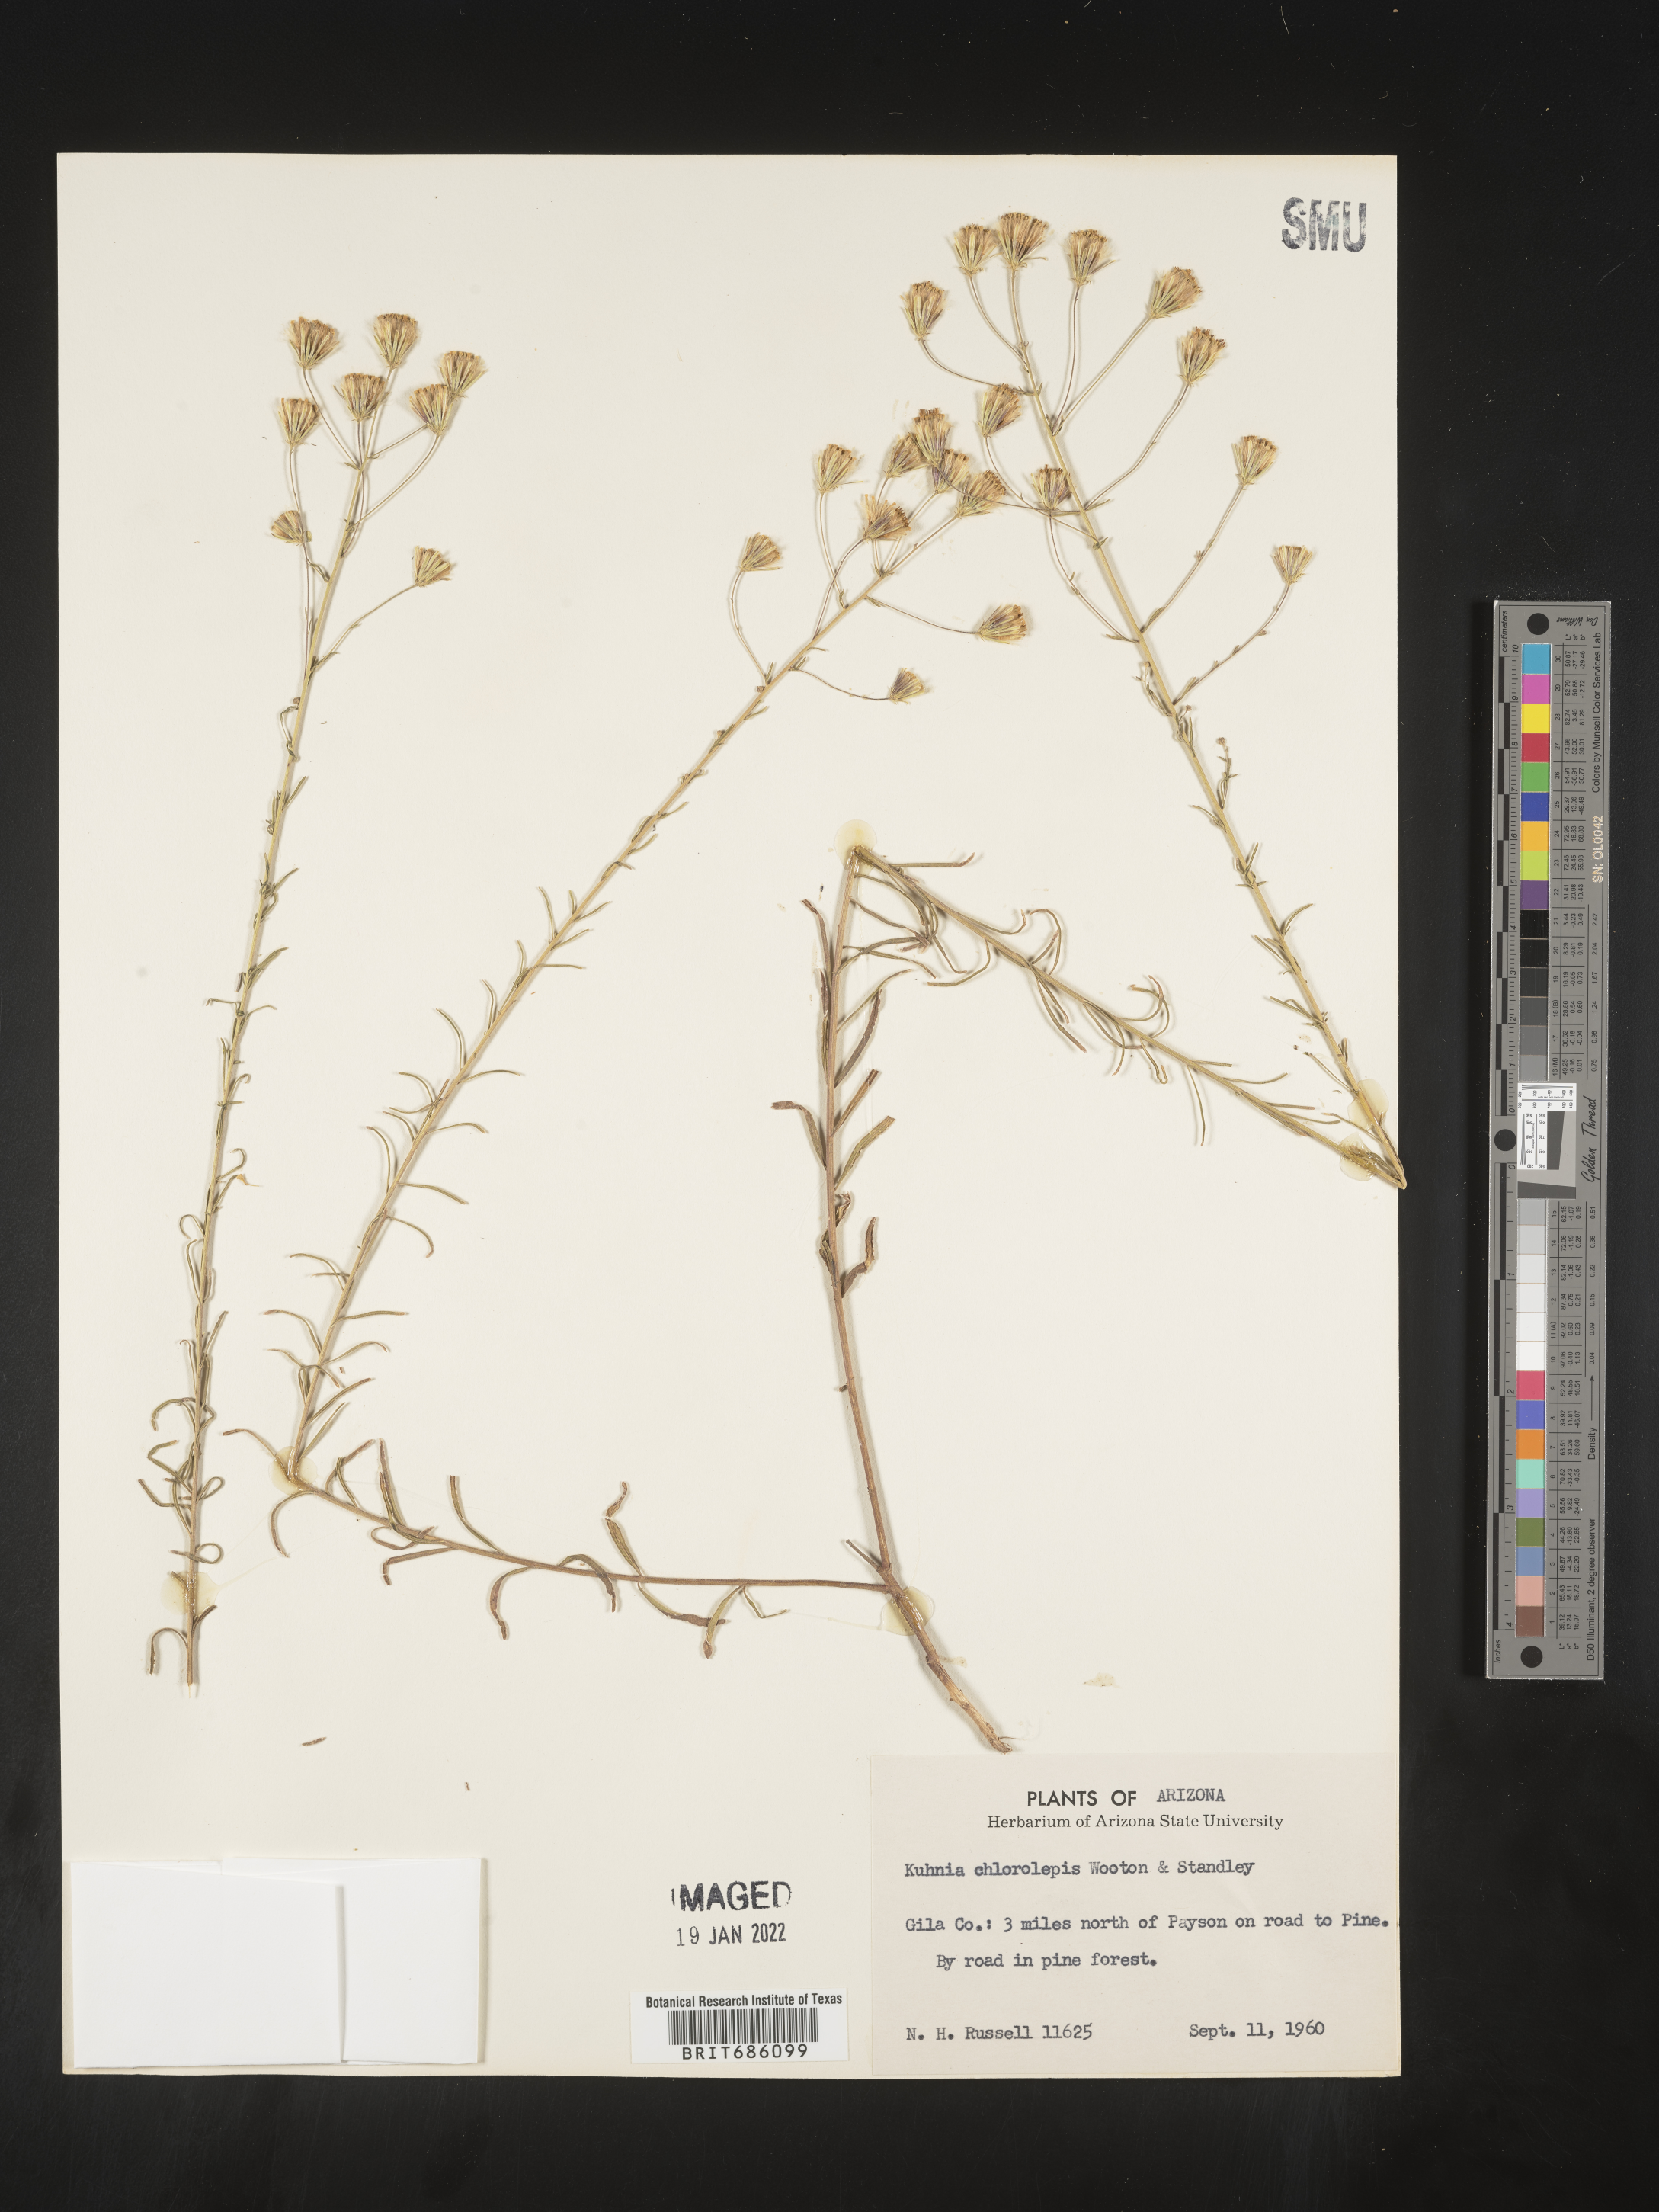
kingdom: Plantae
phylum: Tracheophyta
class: Magnoliopsida
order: Asterales
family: Asteraceae
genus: Brickellia
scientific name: Brickellia
